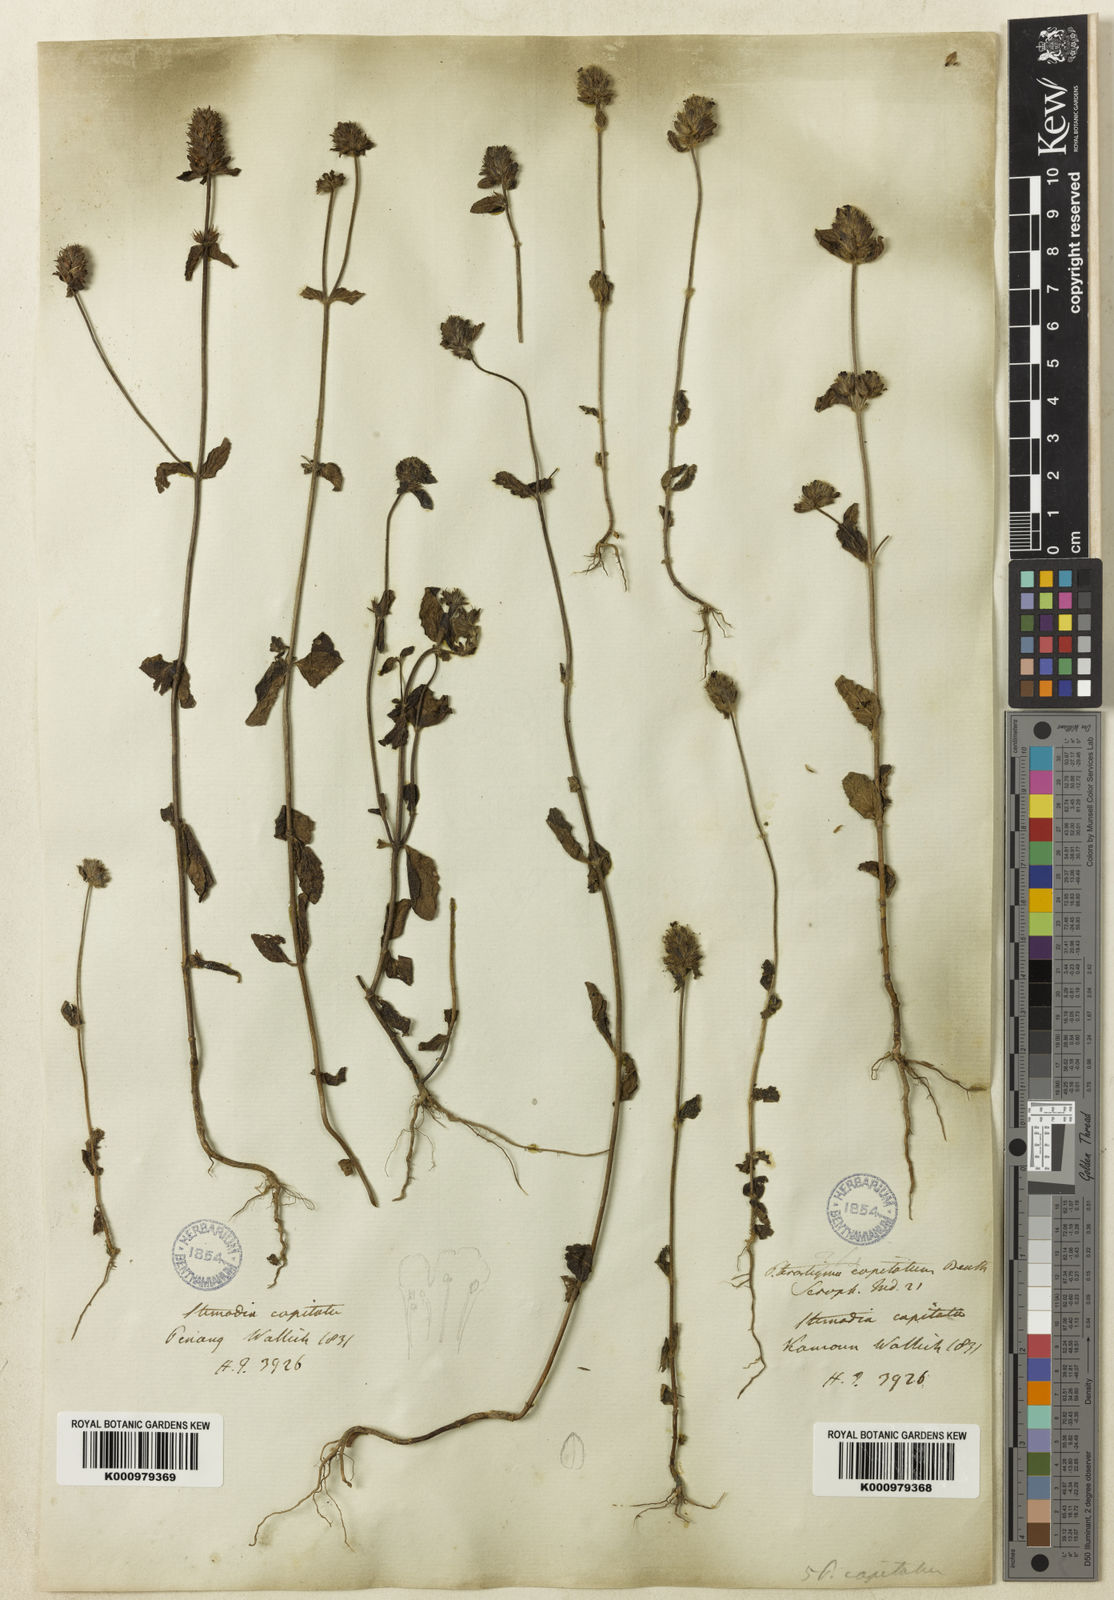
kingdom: Plantae
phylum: Tracheophyta
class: Magnoliopsida
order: Lamiales
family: Plantaginaceae
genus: Adenosma
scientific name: Adenosma indiana
